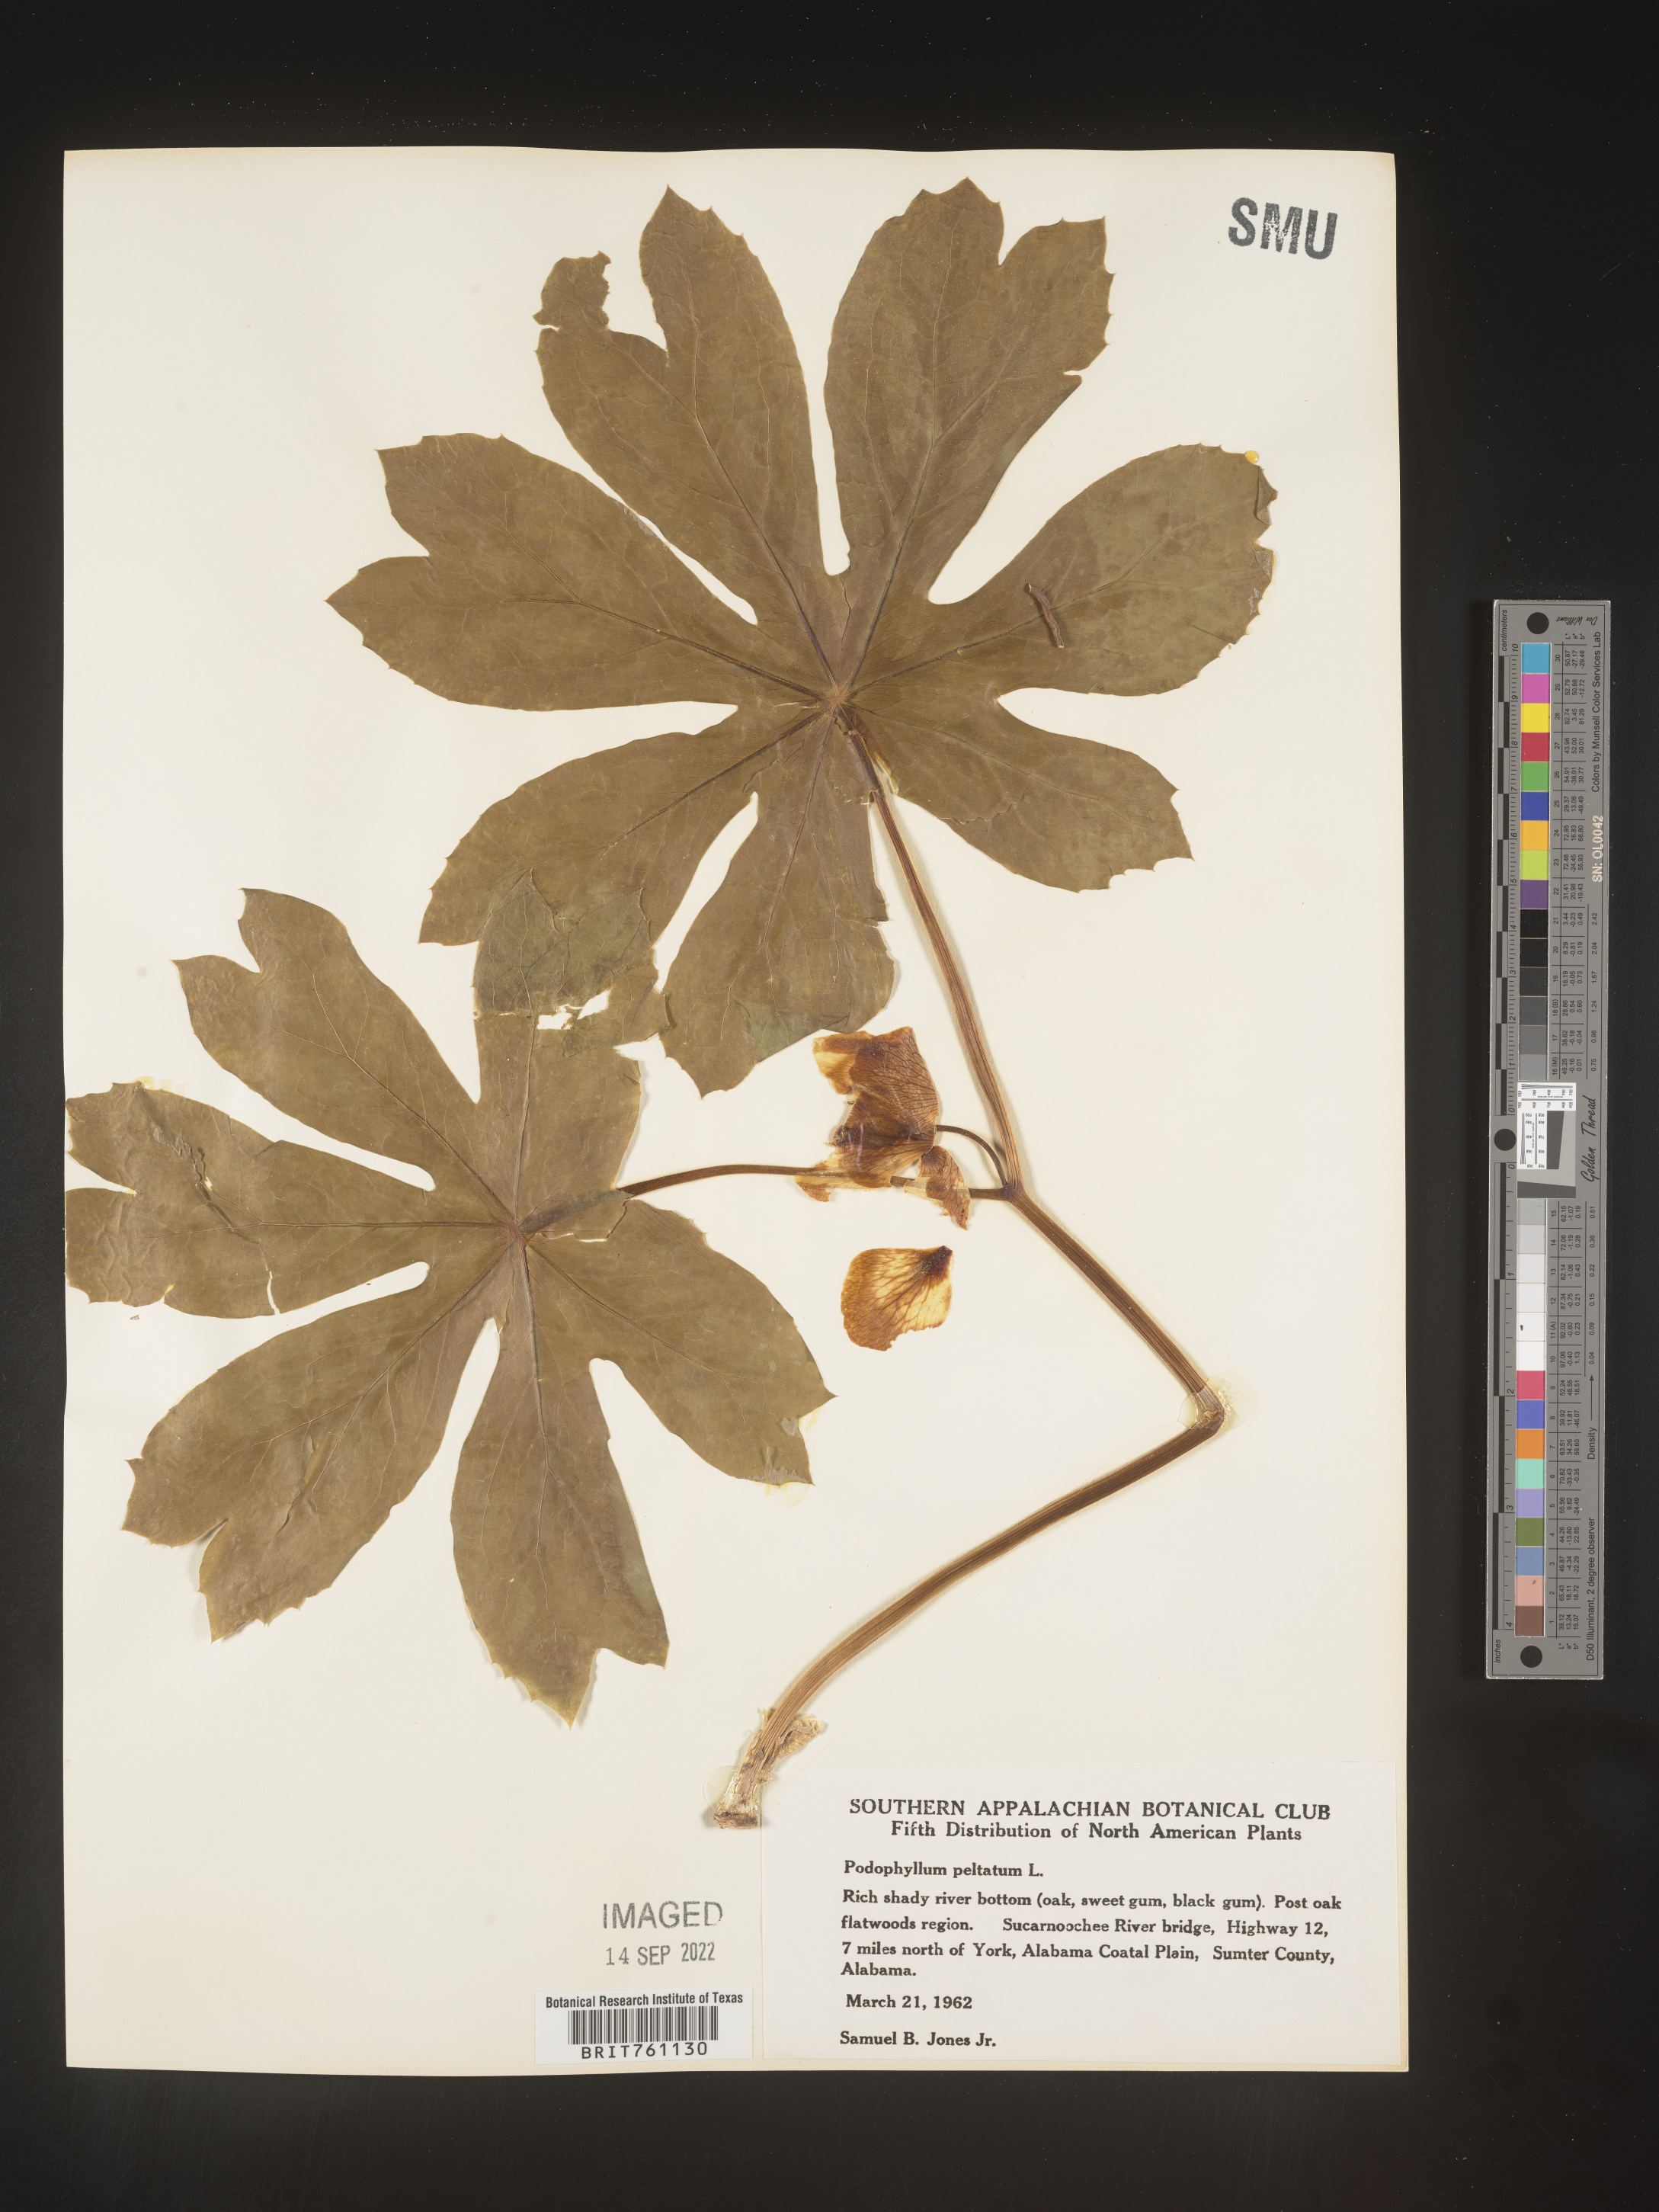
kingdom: Plantae
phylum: Tracheophyta
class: Magnoliopsida
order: Ranunculales
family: Berberidaceae
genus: Podophyllum
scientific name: Podophyllum peltatum
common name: Wild mandrake
